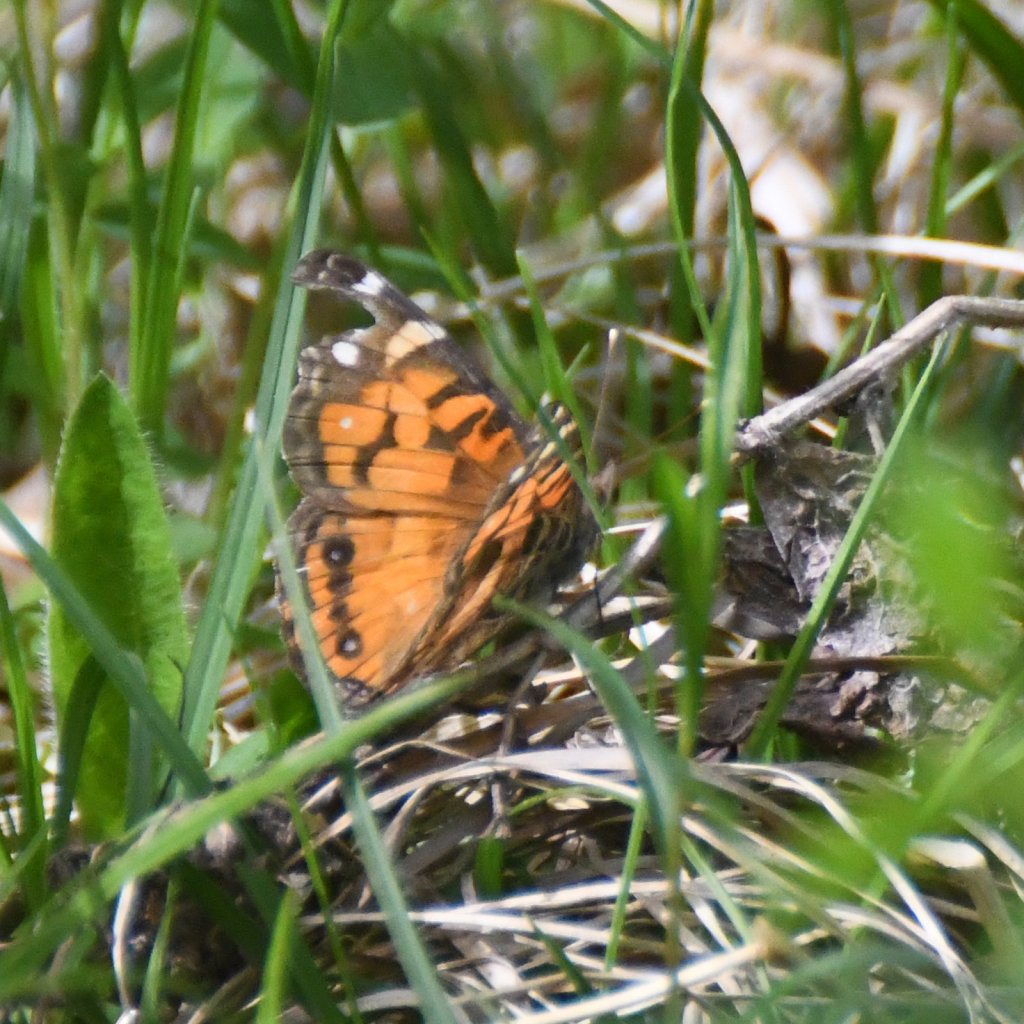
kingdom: Animalia
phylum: Arthropoda
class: Insecta
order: Lepidoptera
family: Nymphalidae
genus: Vanessa
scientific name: Vanessa virginiensis
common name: American Lady
